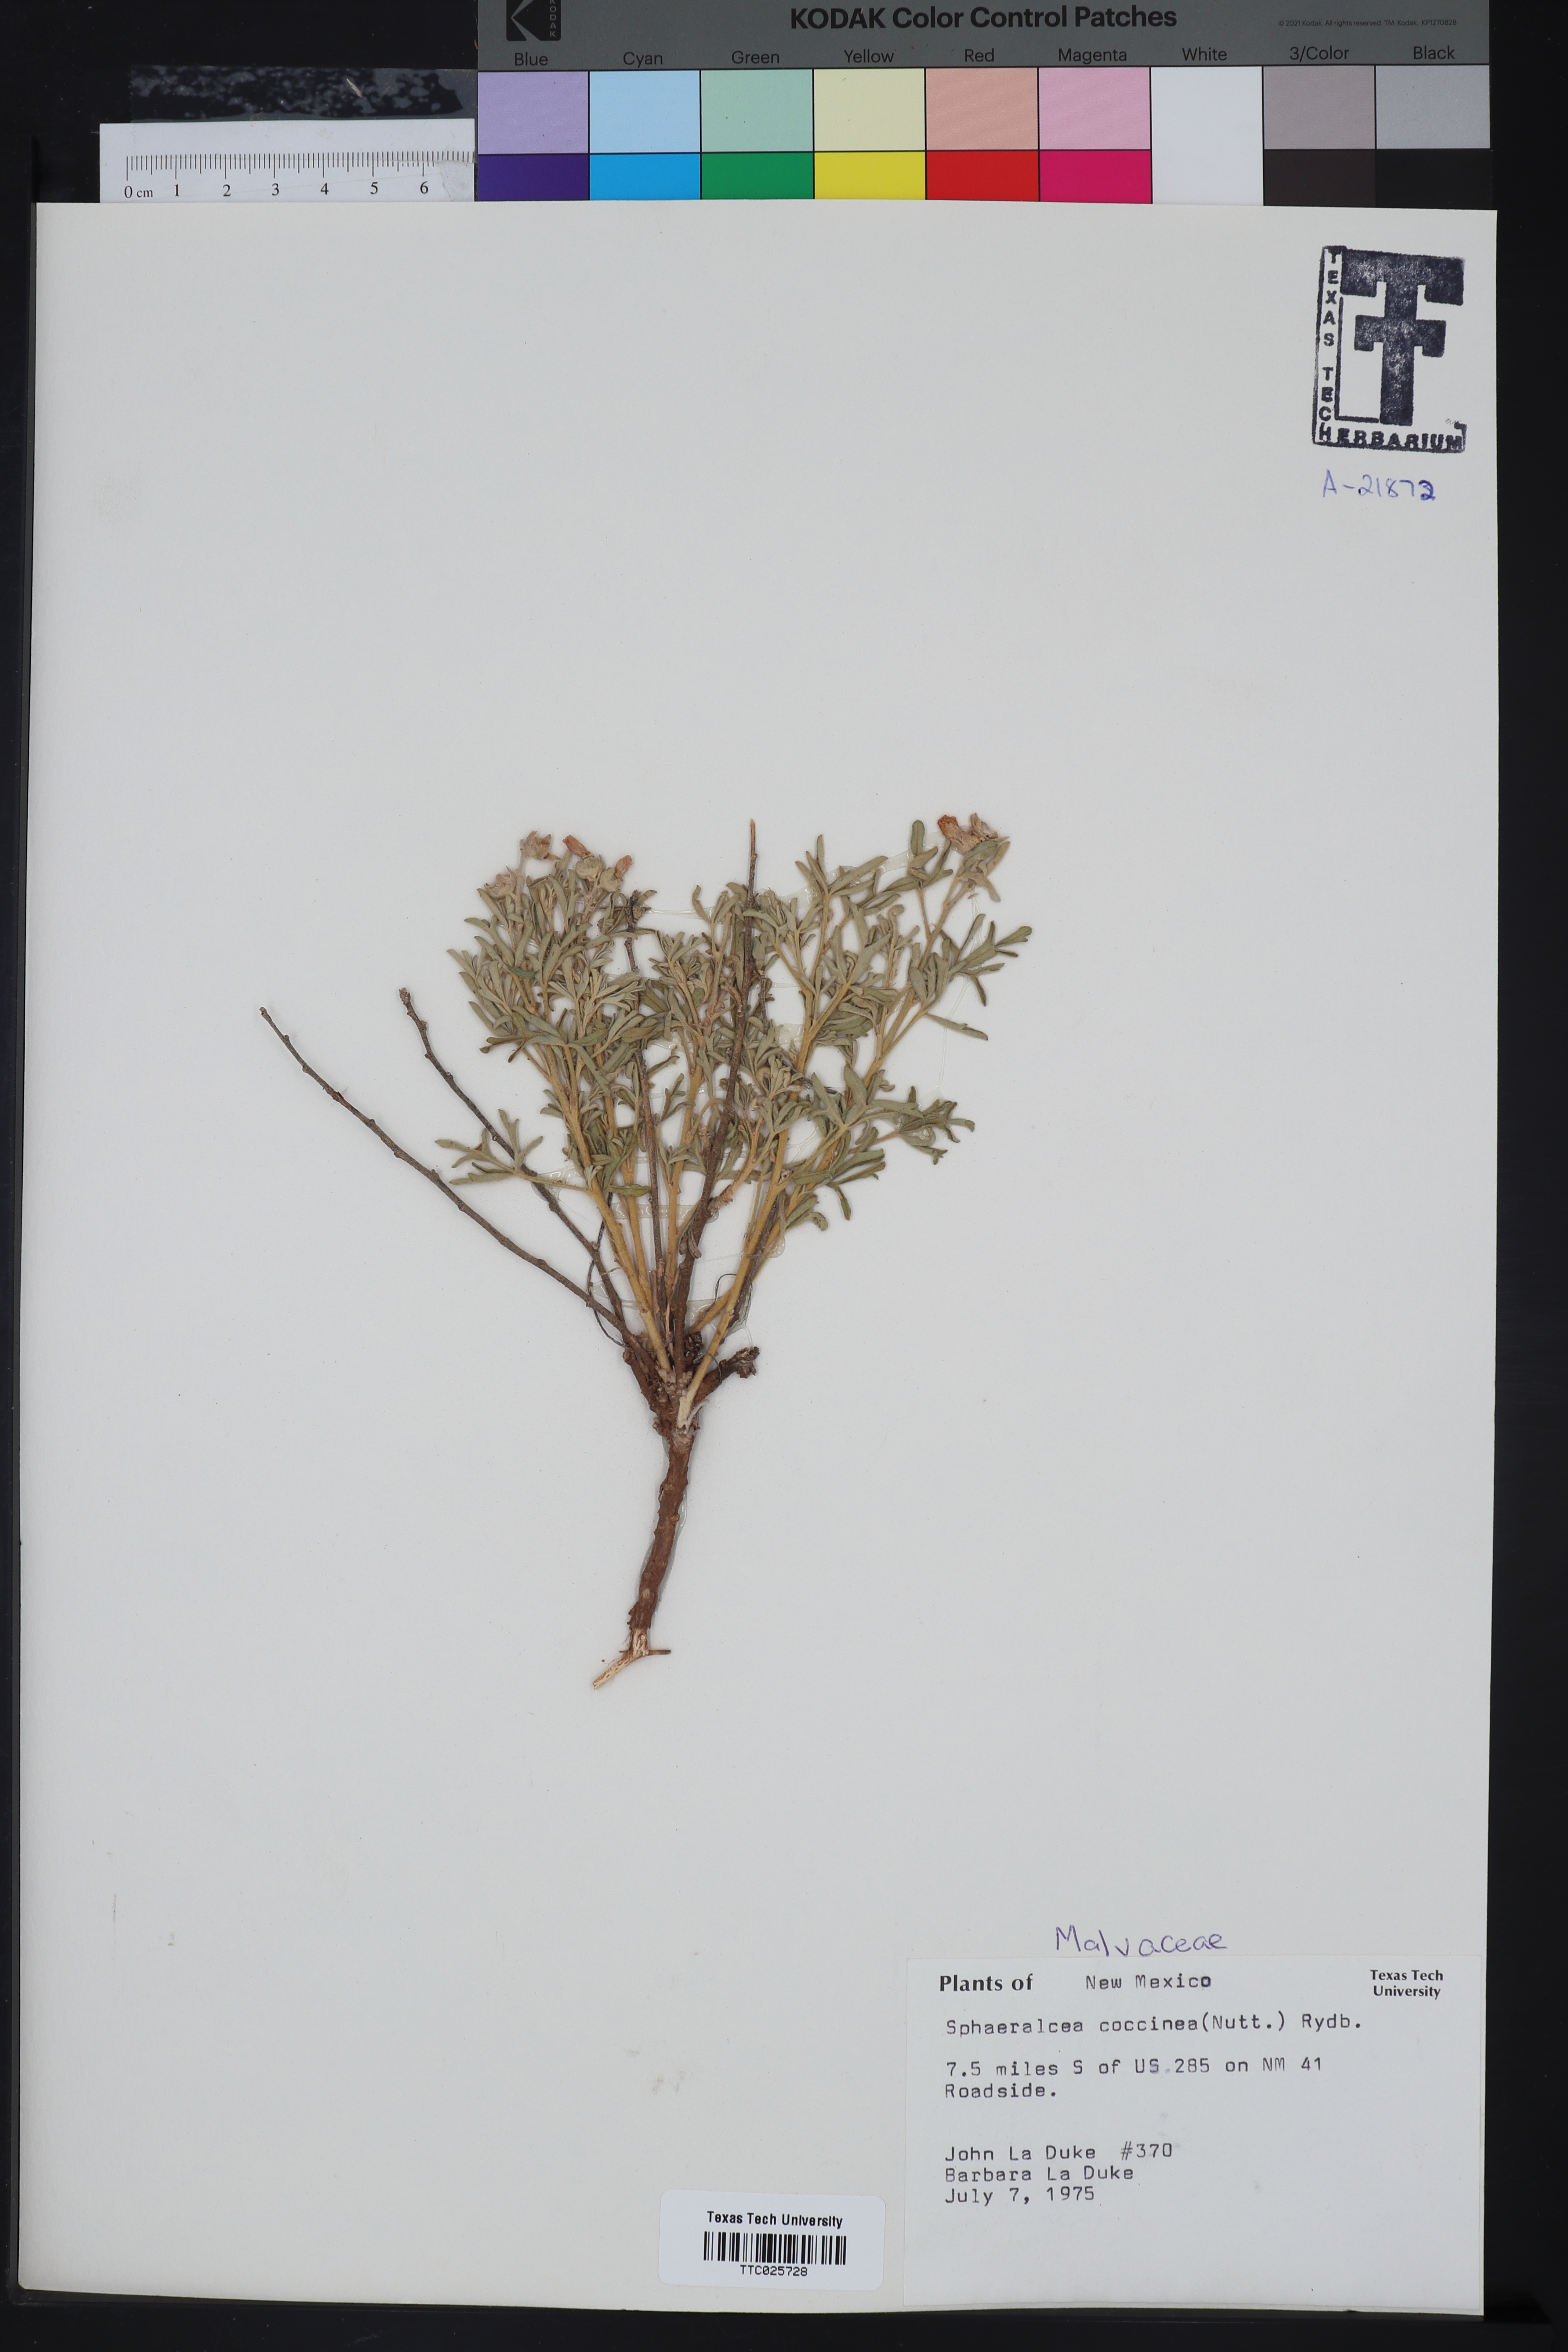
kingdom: Plantae
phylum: Tracheophyta
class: Magnoliopsida
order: Malvales
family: Malvaceae
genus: Sphaeralcea
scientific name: Sphaeralcea coccinea
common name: Moss-rose
